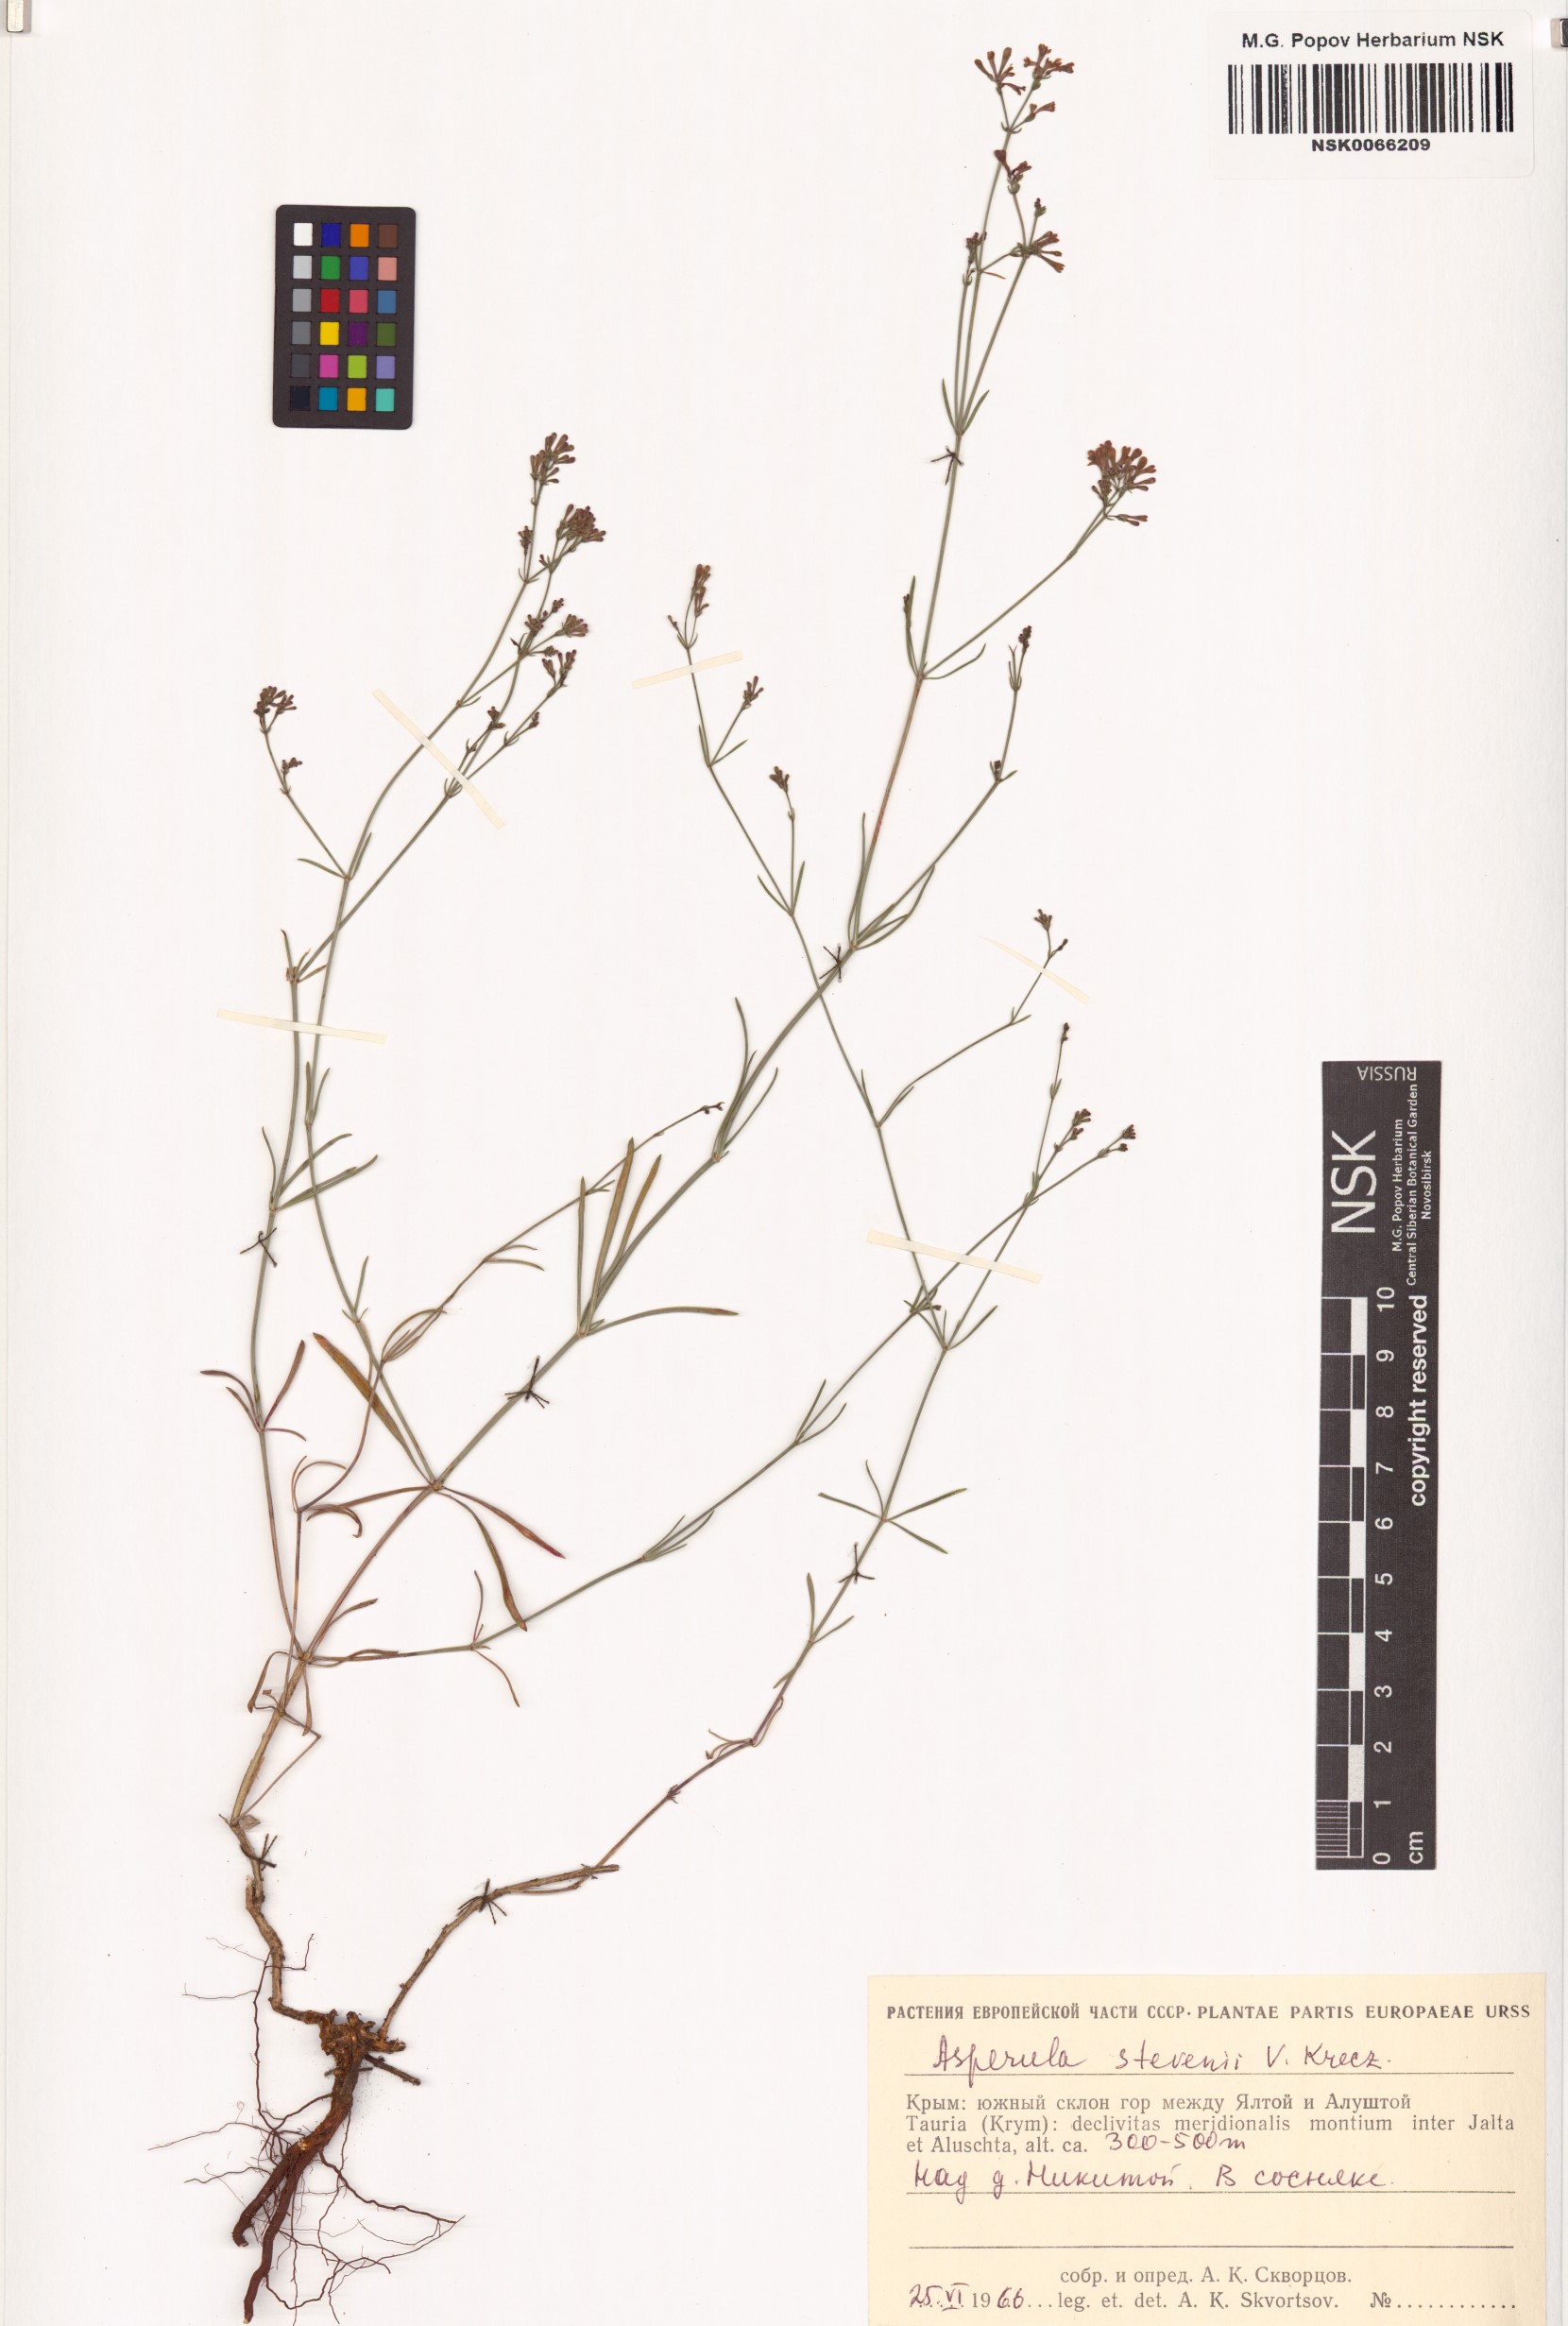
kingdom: Plantae
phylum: Tracheophyta
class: Magnoliopsida
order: Gentianales
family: Rubiaceae
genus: Cynanchica
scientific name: Cynanchica tenella
